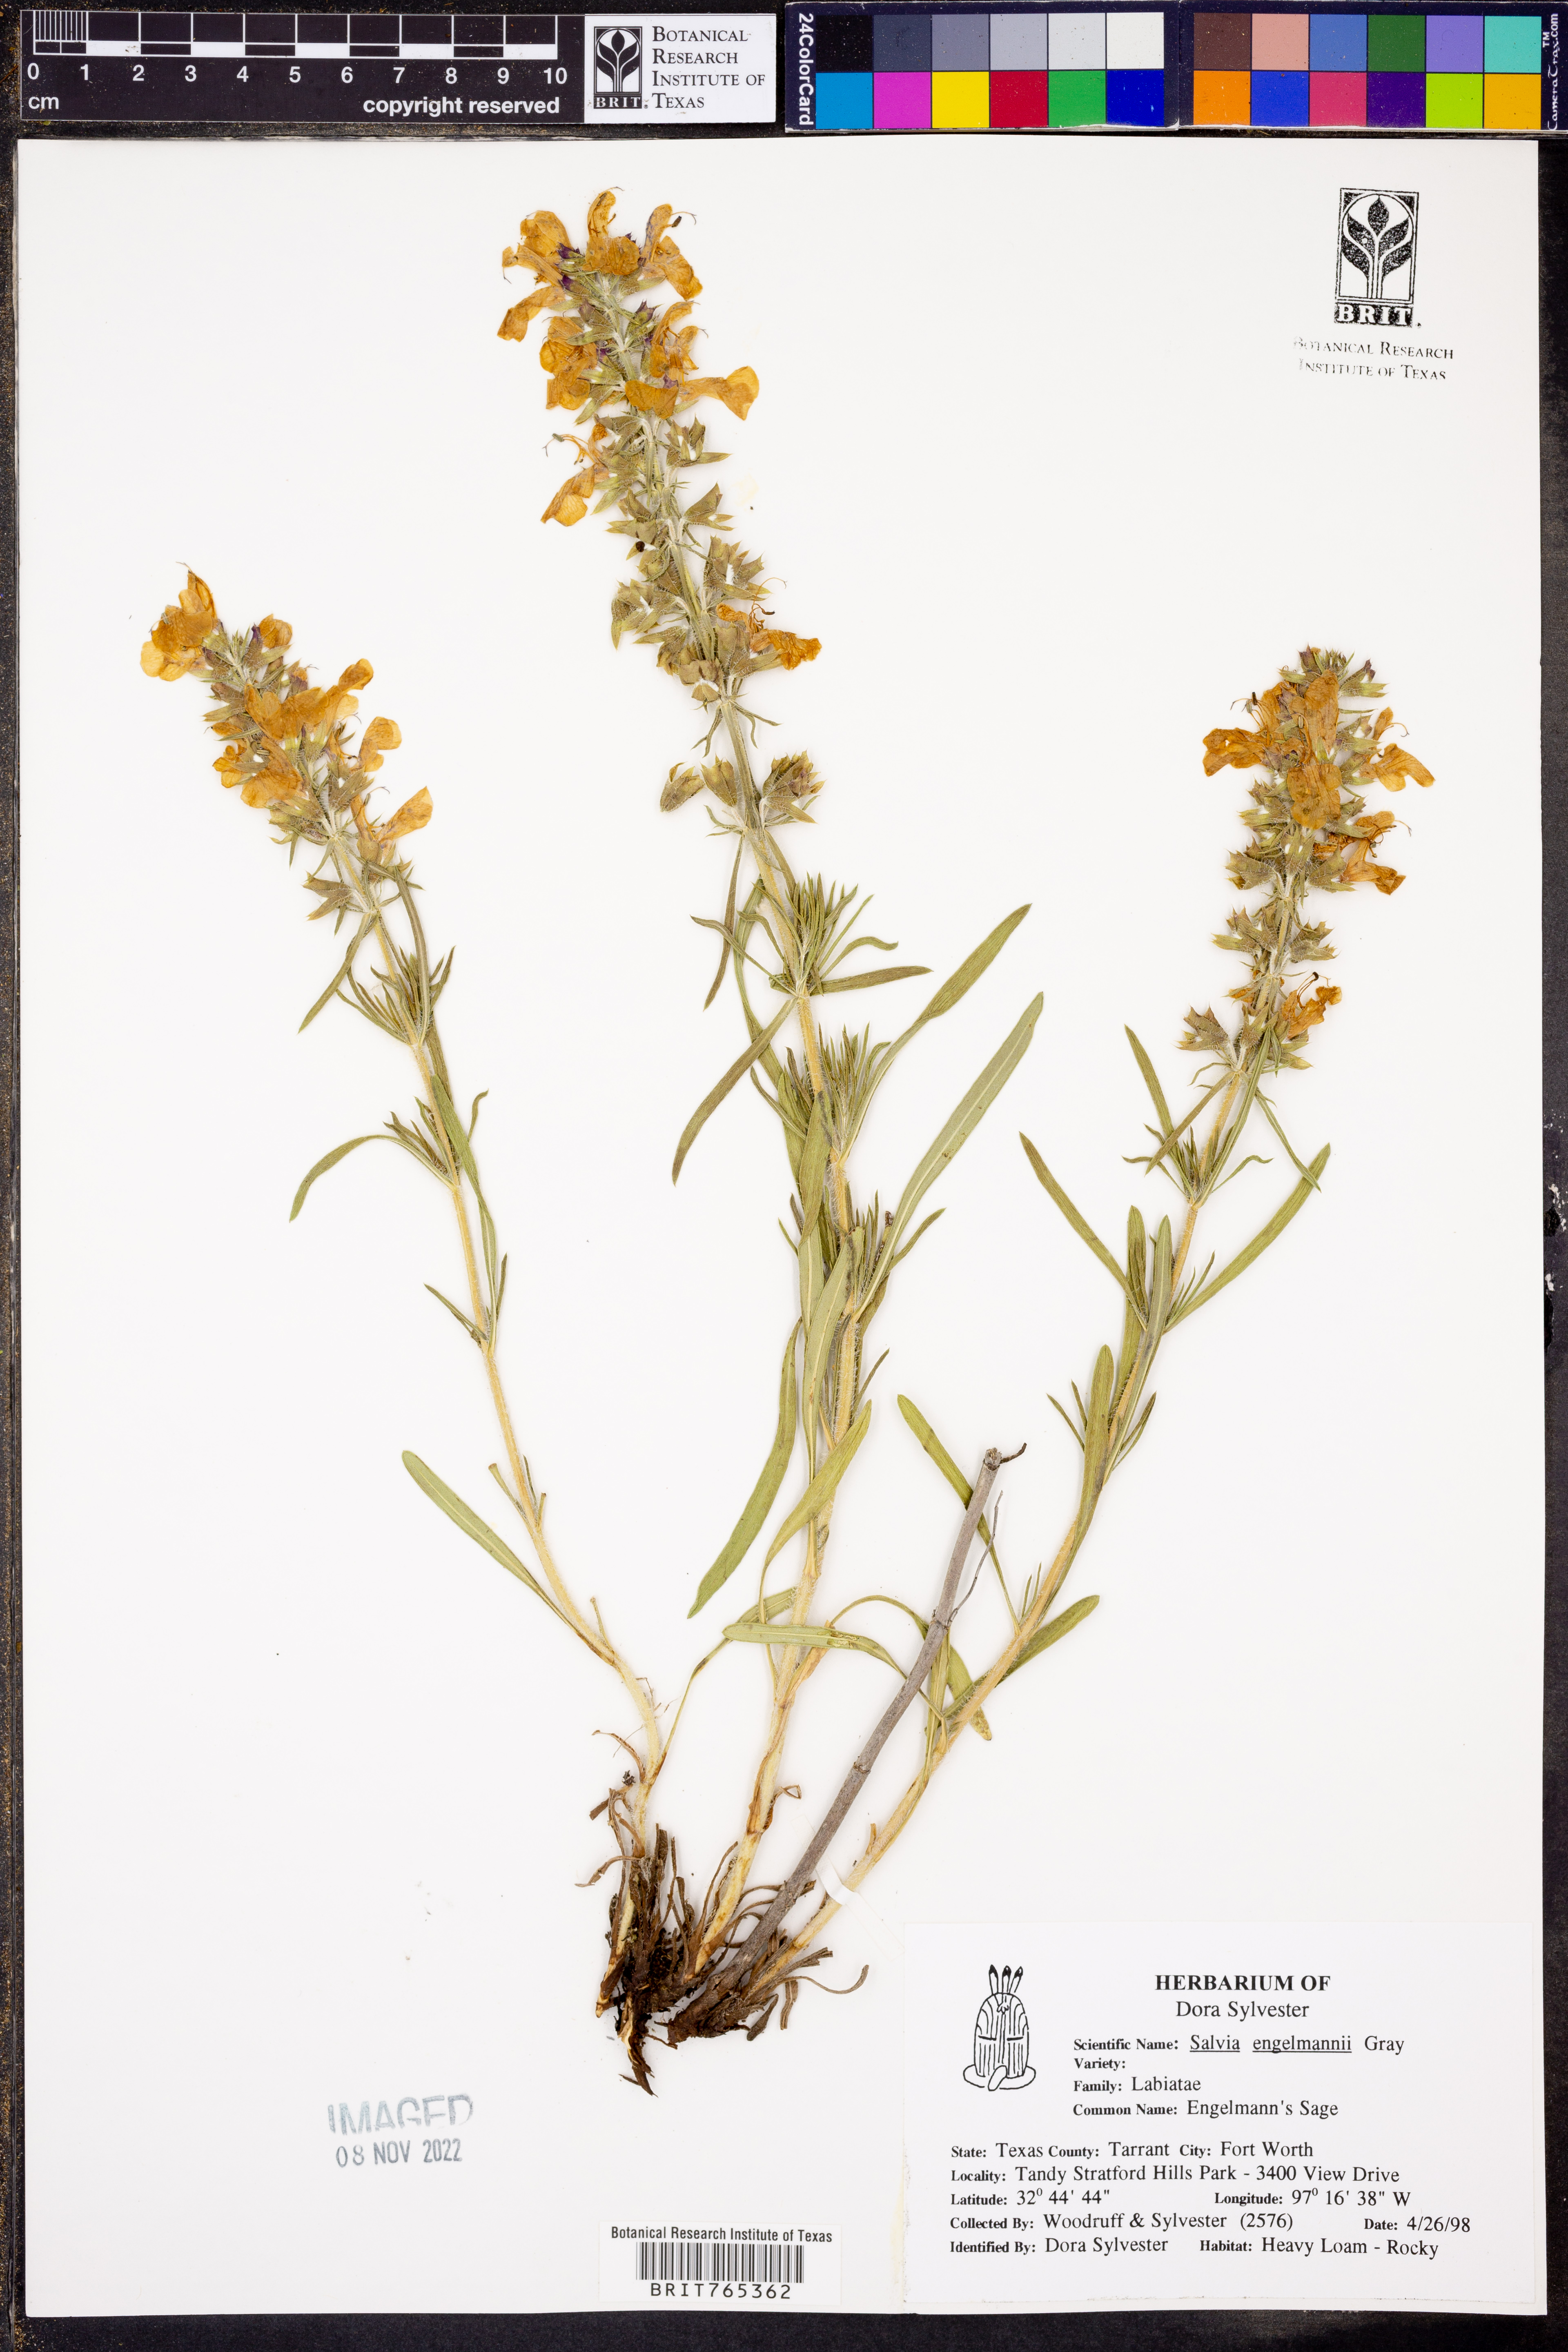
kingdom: Plantae
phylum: Tracheophyta
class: Magnoliopsida
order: Lamiales
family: Lamiaceae
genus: Salvia
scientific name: Salvia engelmannii
